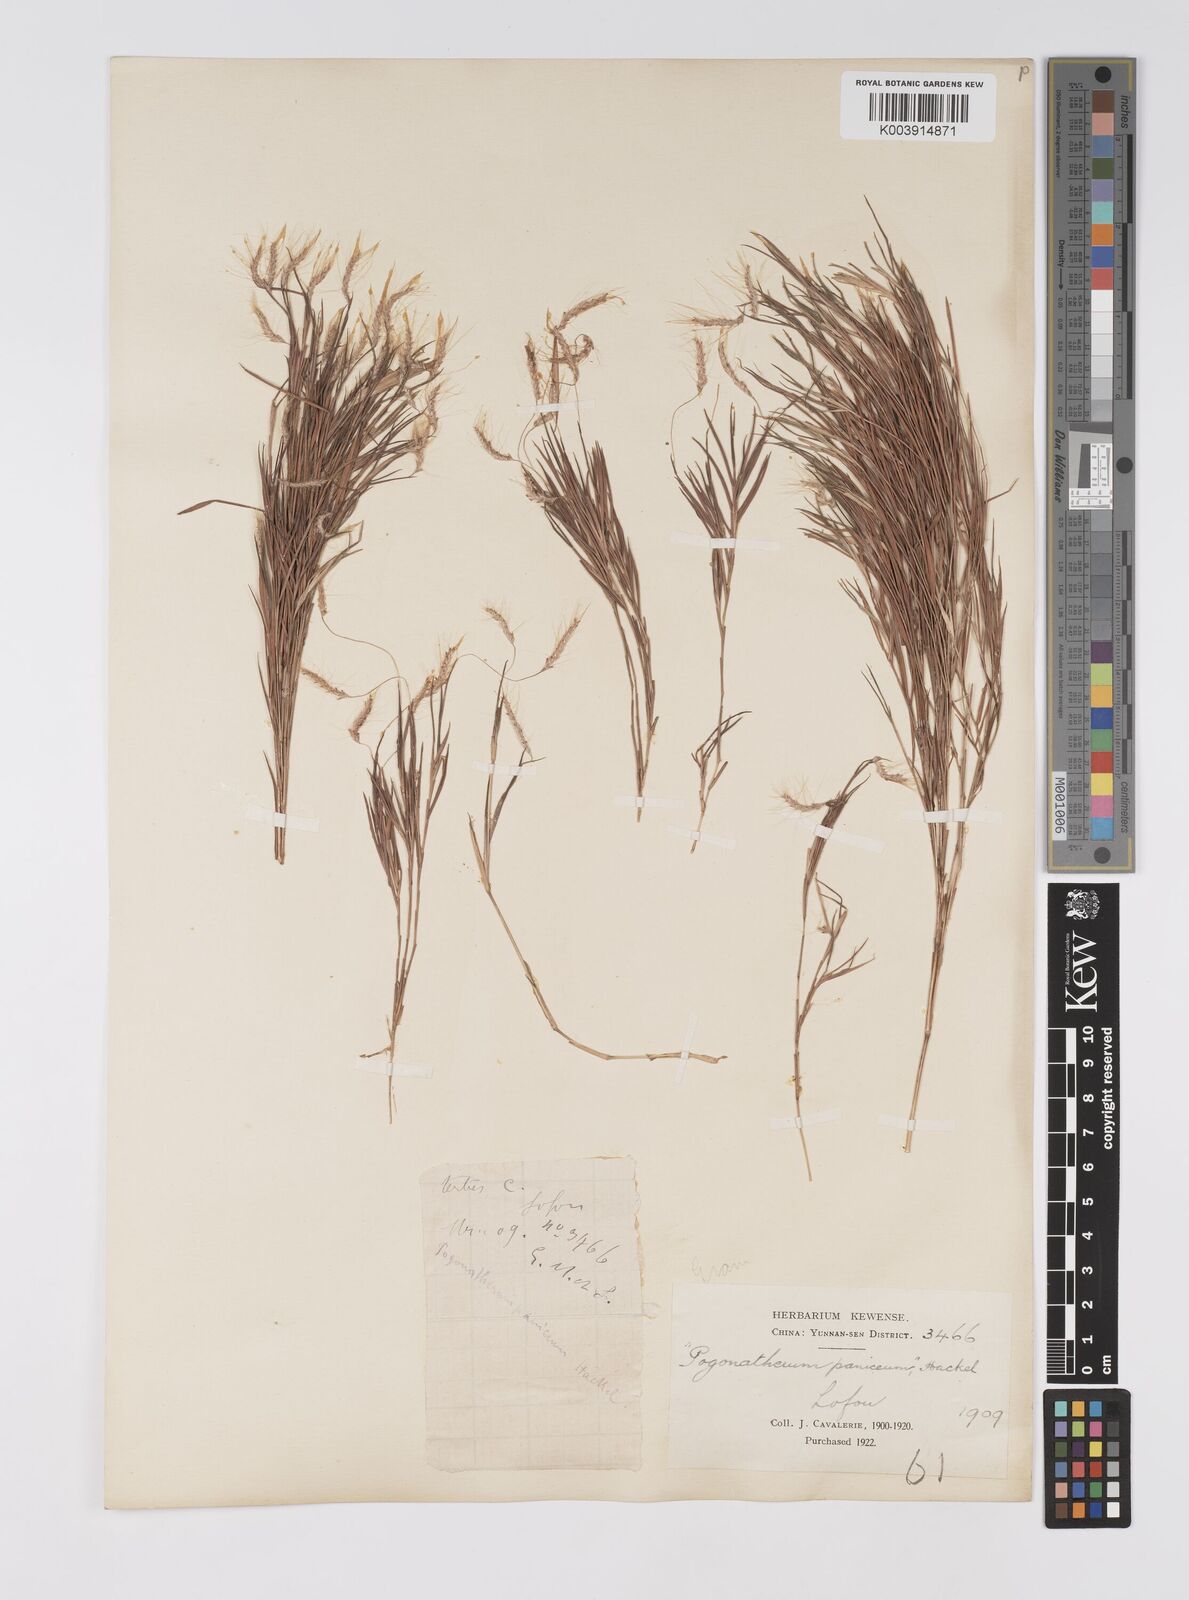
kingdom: Plantae
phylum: Tracheophyta
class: Liliopsida
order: Poales
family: Poaceae
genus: Pogonatherum
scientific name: Pogonatherum paniceum
